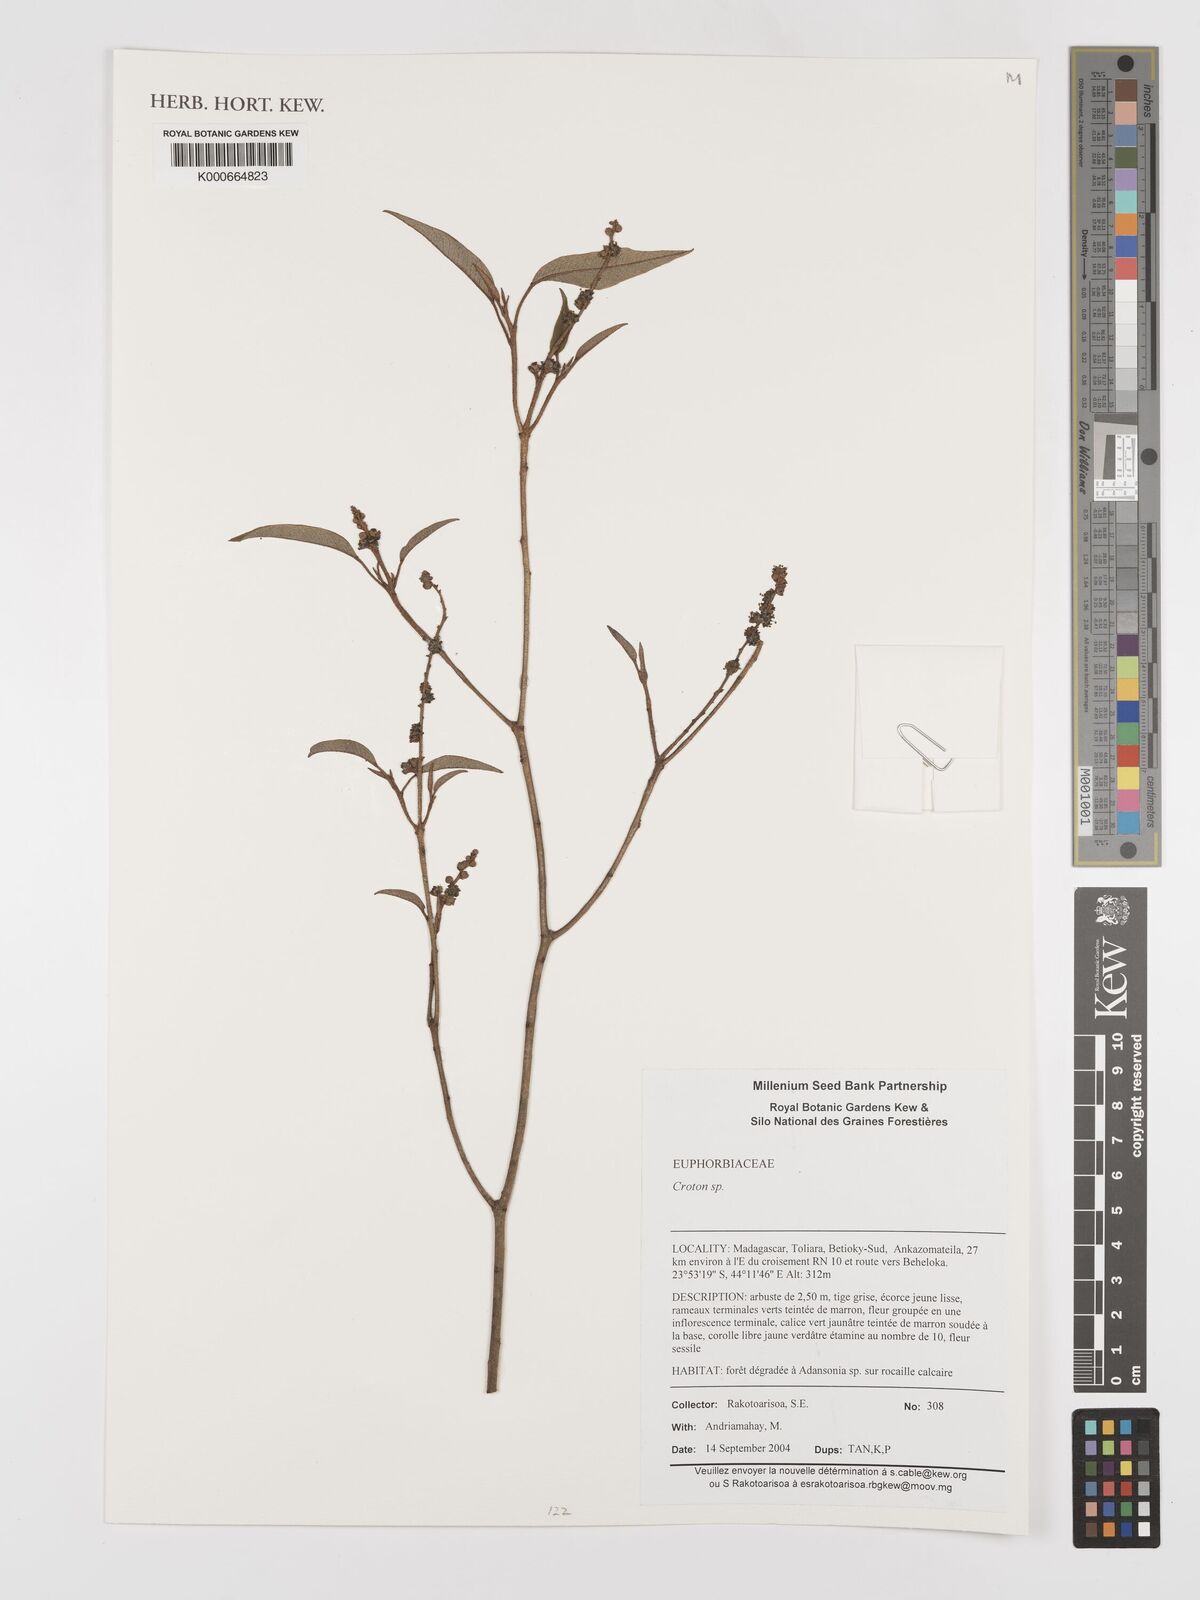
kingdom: Plantae
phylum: Tracheophyta
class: Magnoliopsida
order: Malpighiales
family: Euphorbiaceae
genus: Croton
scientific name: Croton
